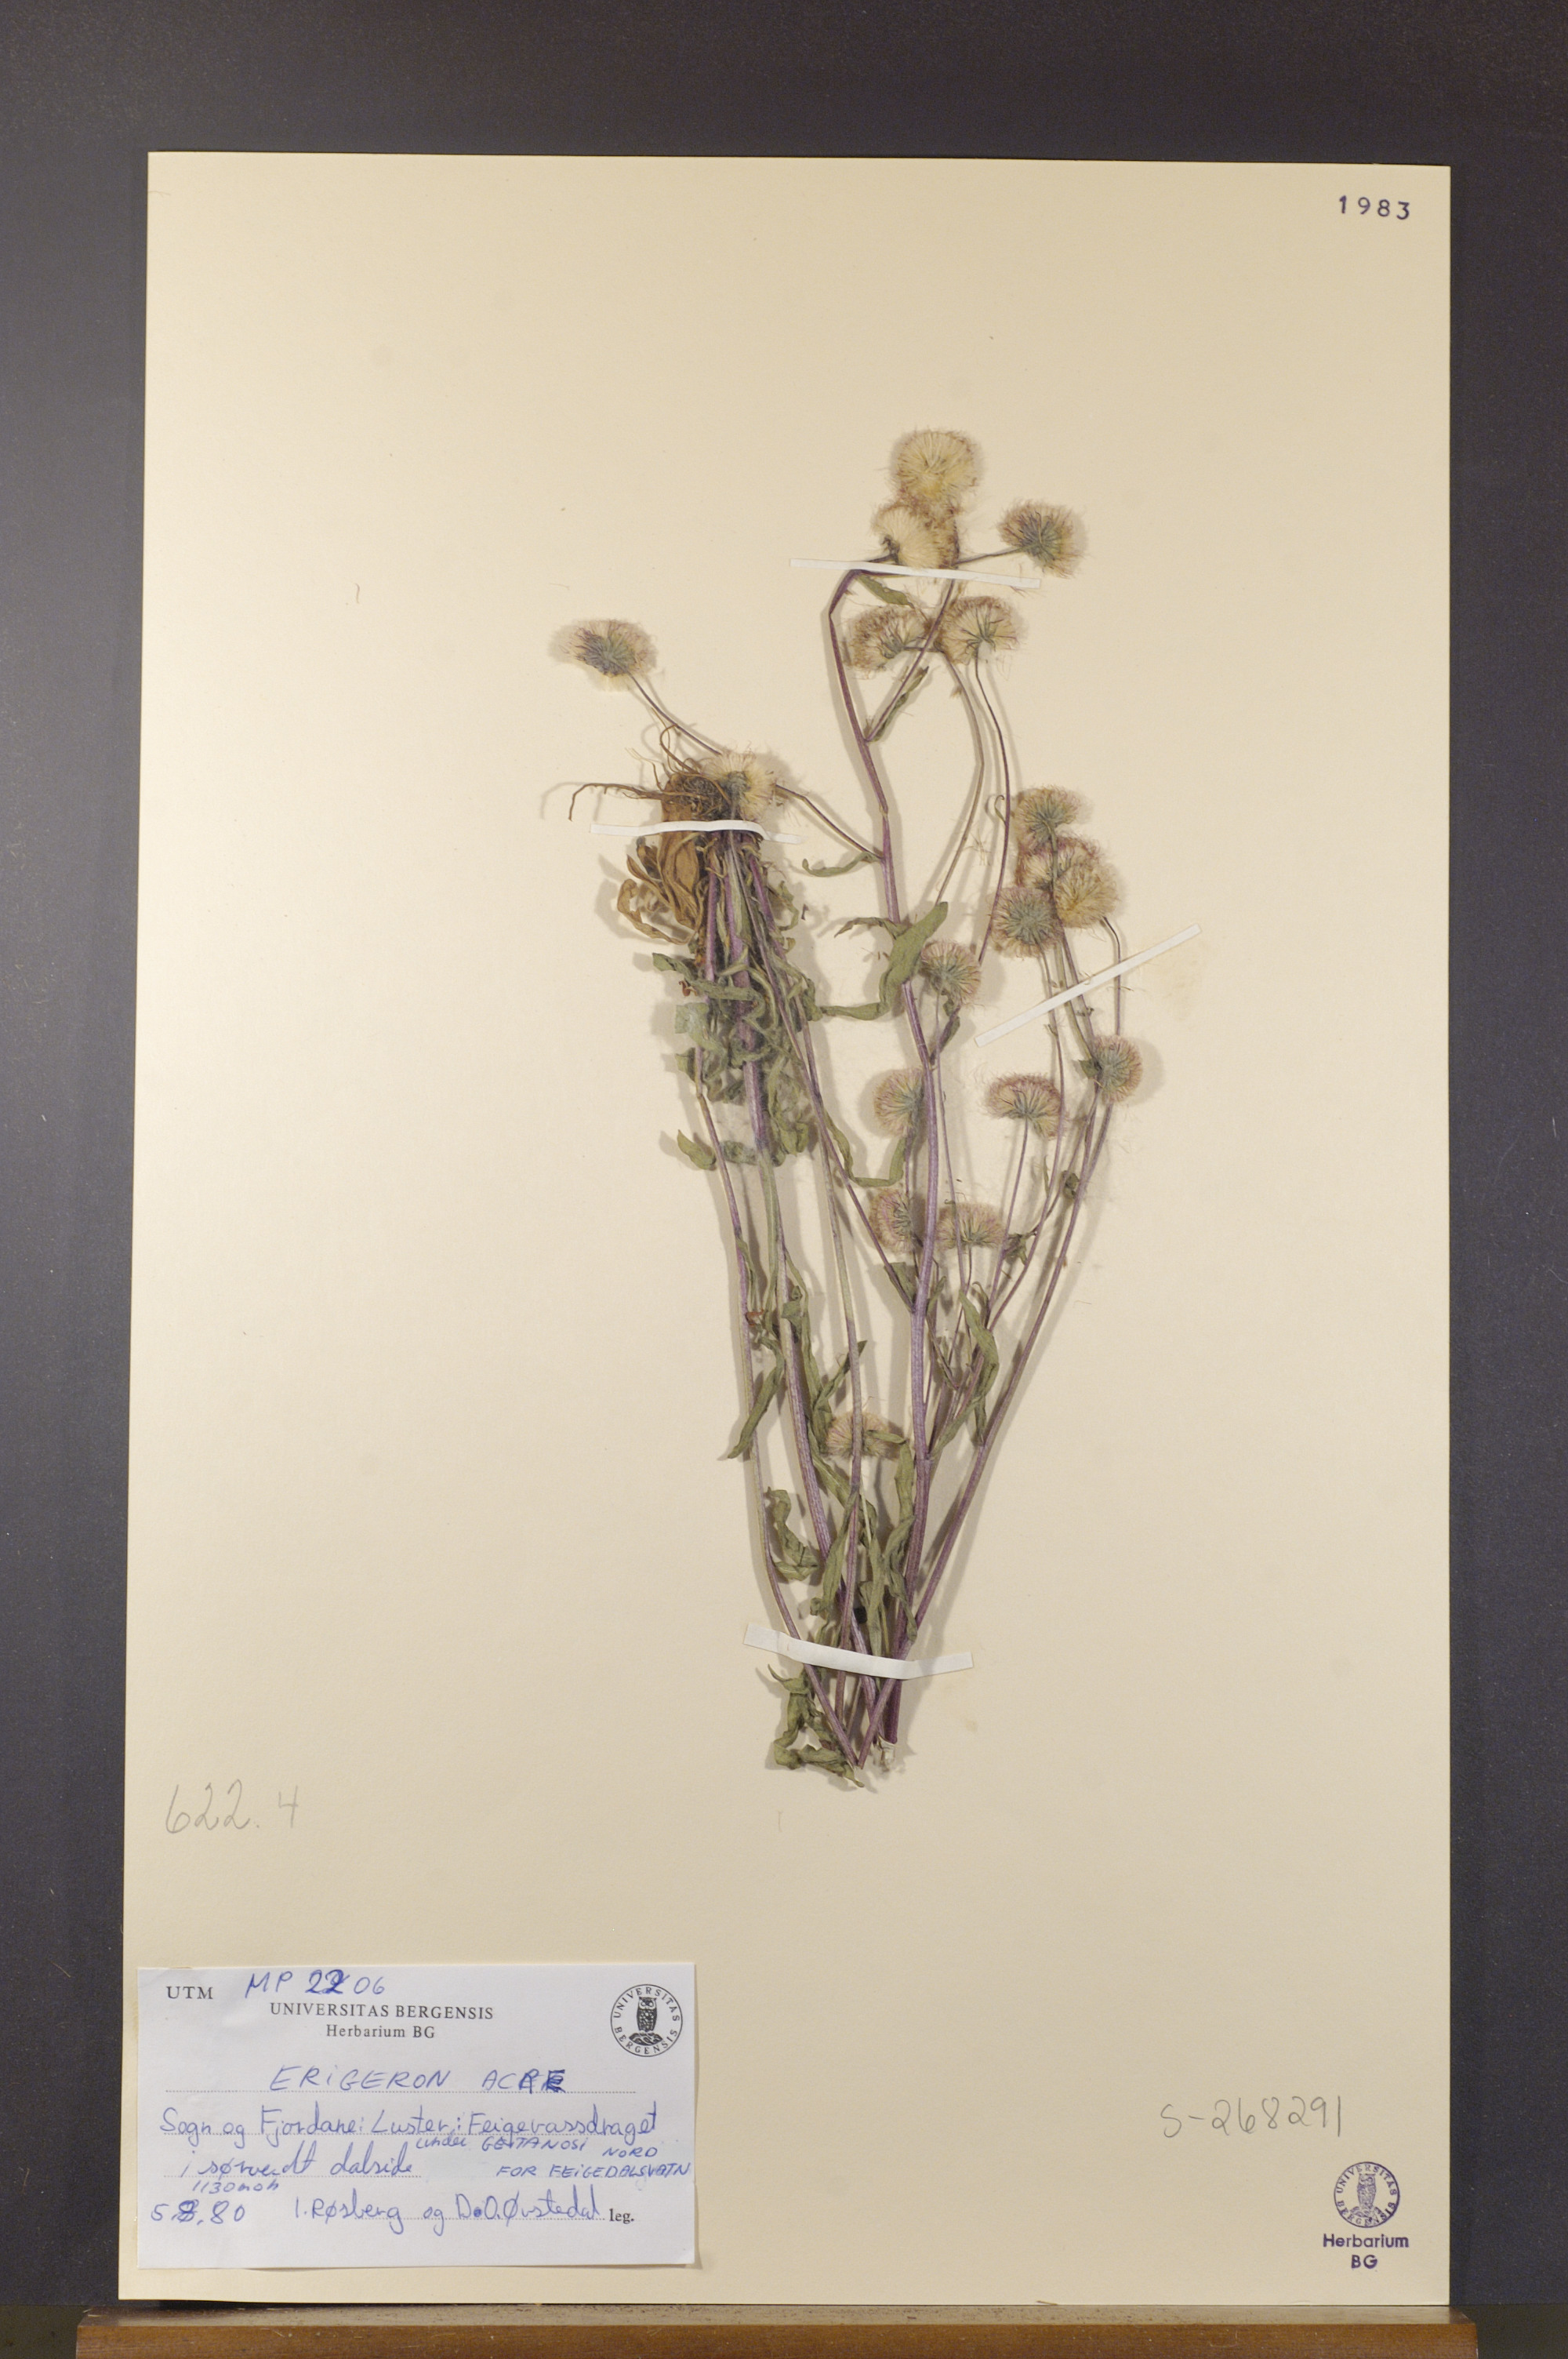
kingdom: Plantae
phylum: Tracheophyta
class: Magnoliopsida
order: Asterales
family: Asteraceae
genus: Erigeron
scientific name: Erigeron acris
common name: Blue fleabane
